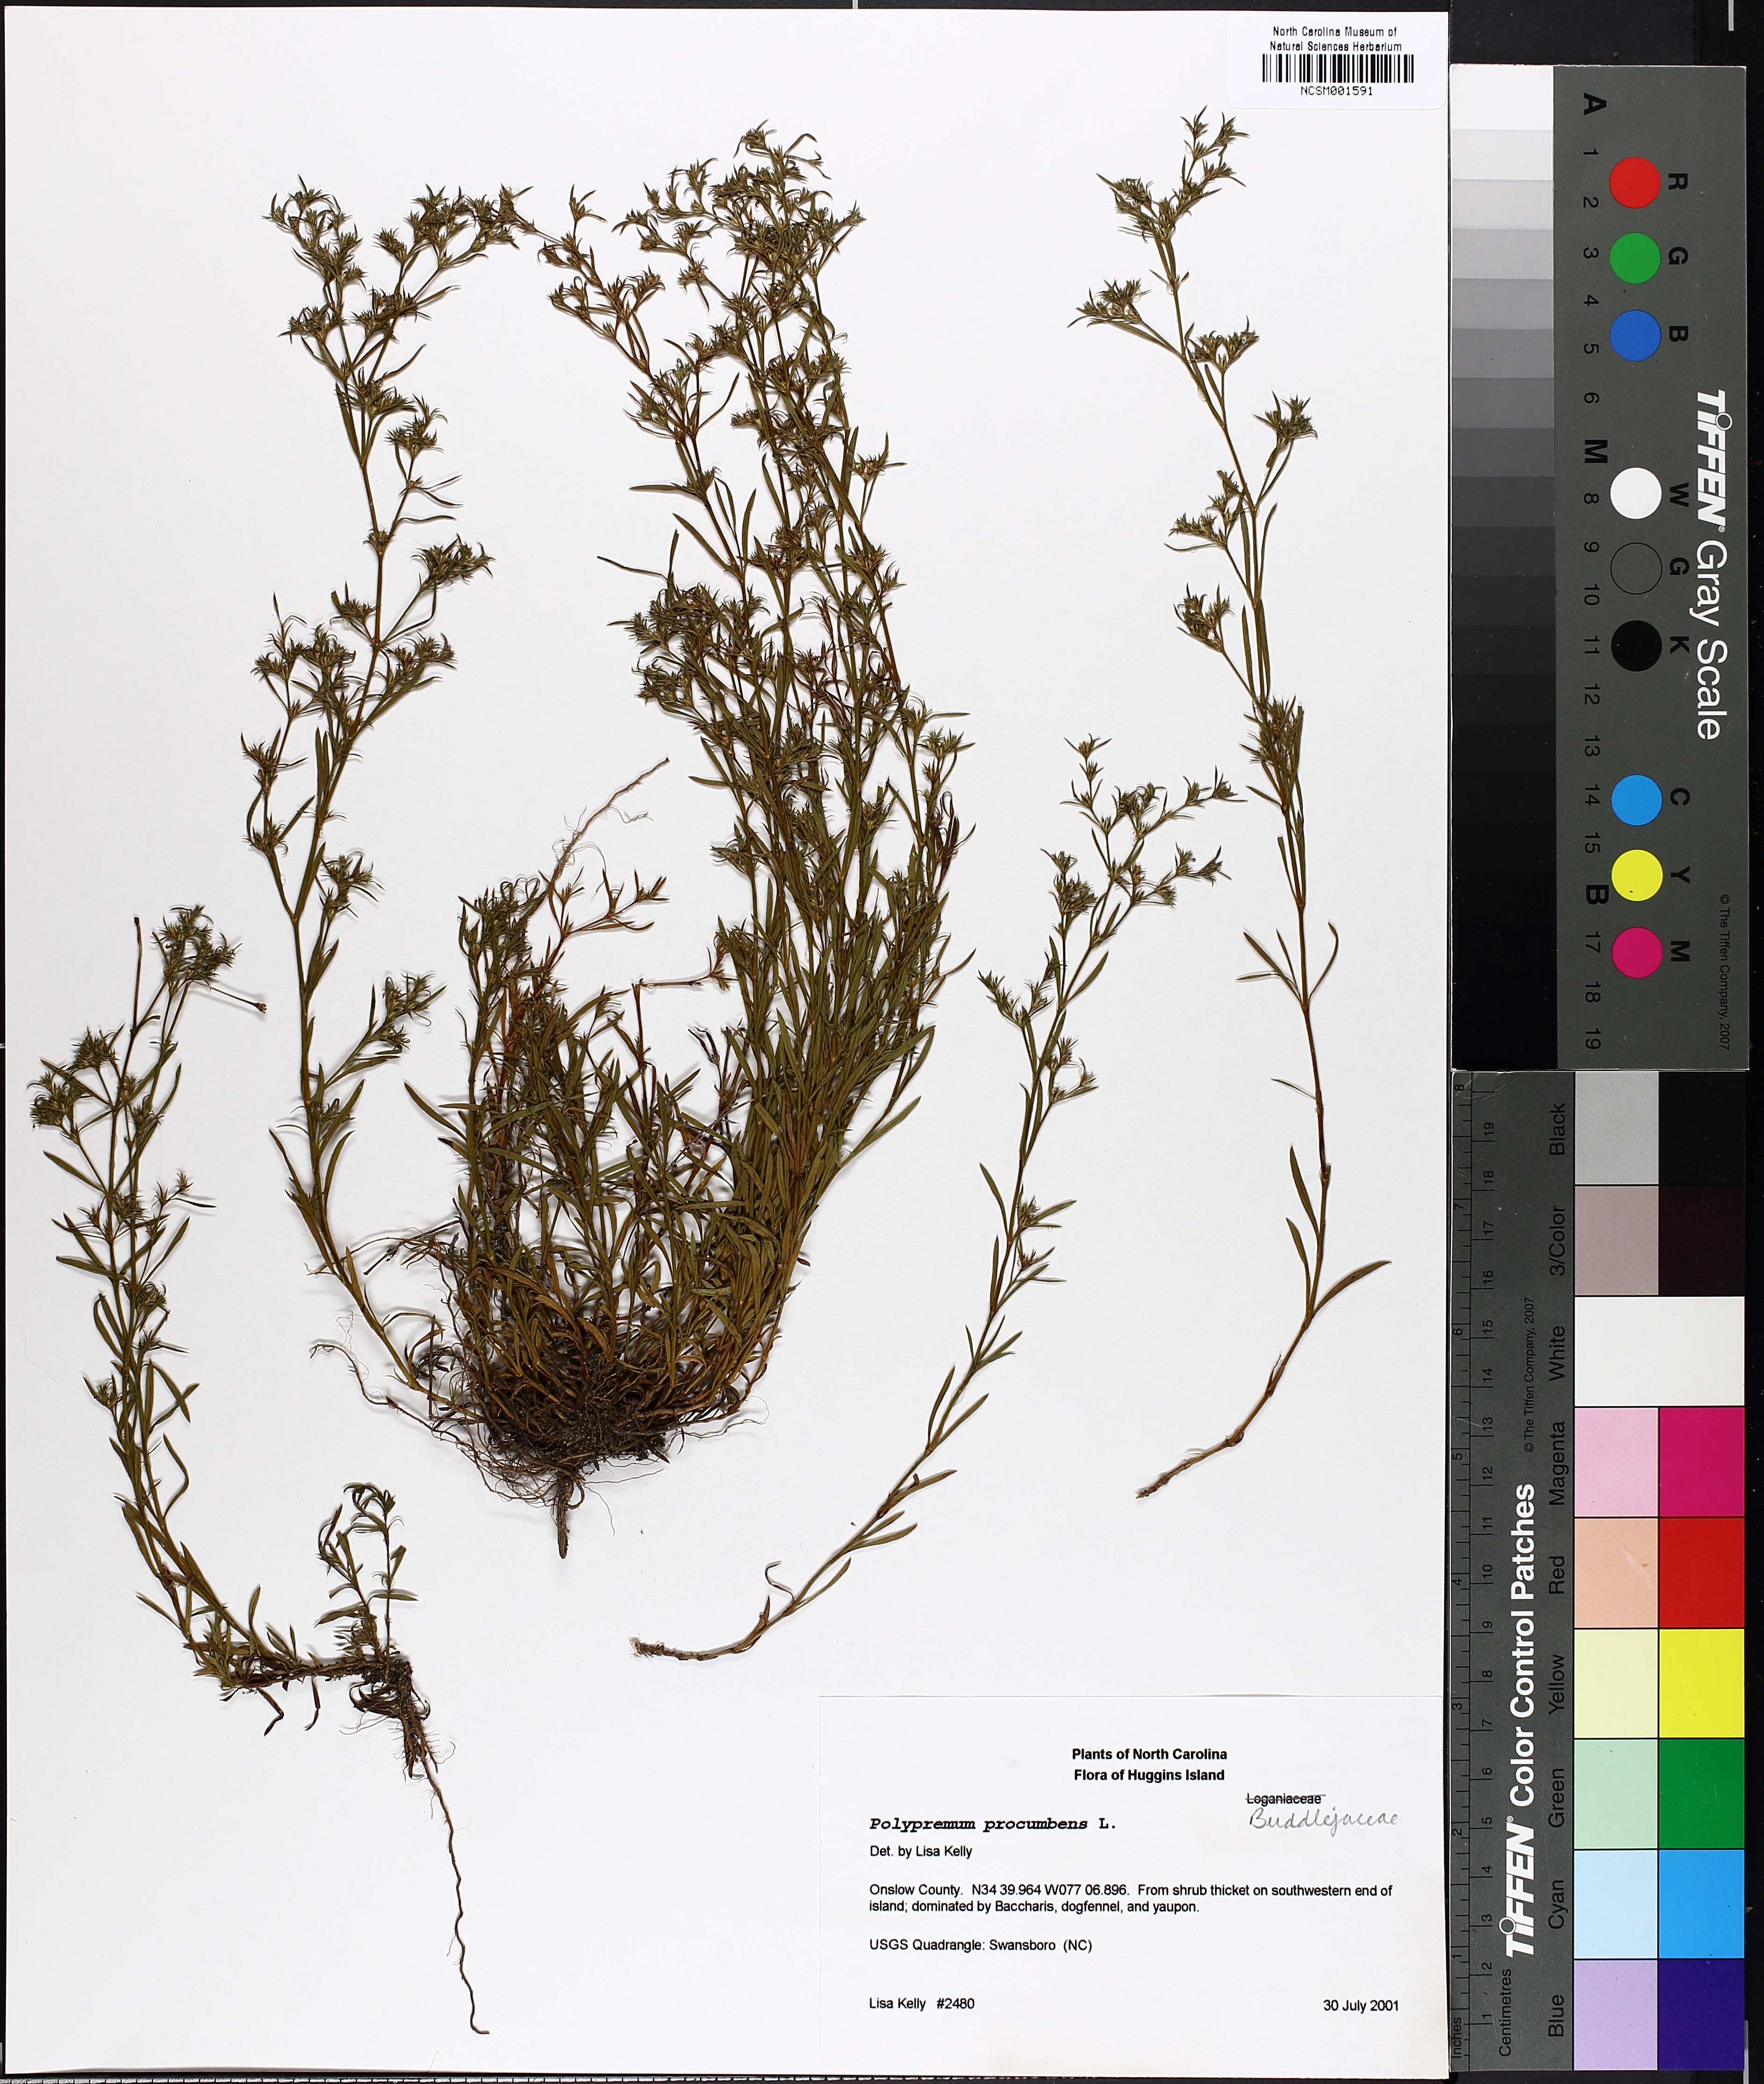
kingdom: Plantae
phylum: Tracheophyta
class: Magnoliopsida
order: Lamiales
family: Tetrachondraceae
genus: Polypremum
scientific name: Polypremum procumbens
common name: Juniper-leaf
